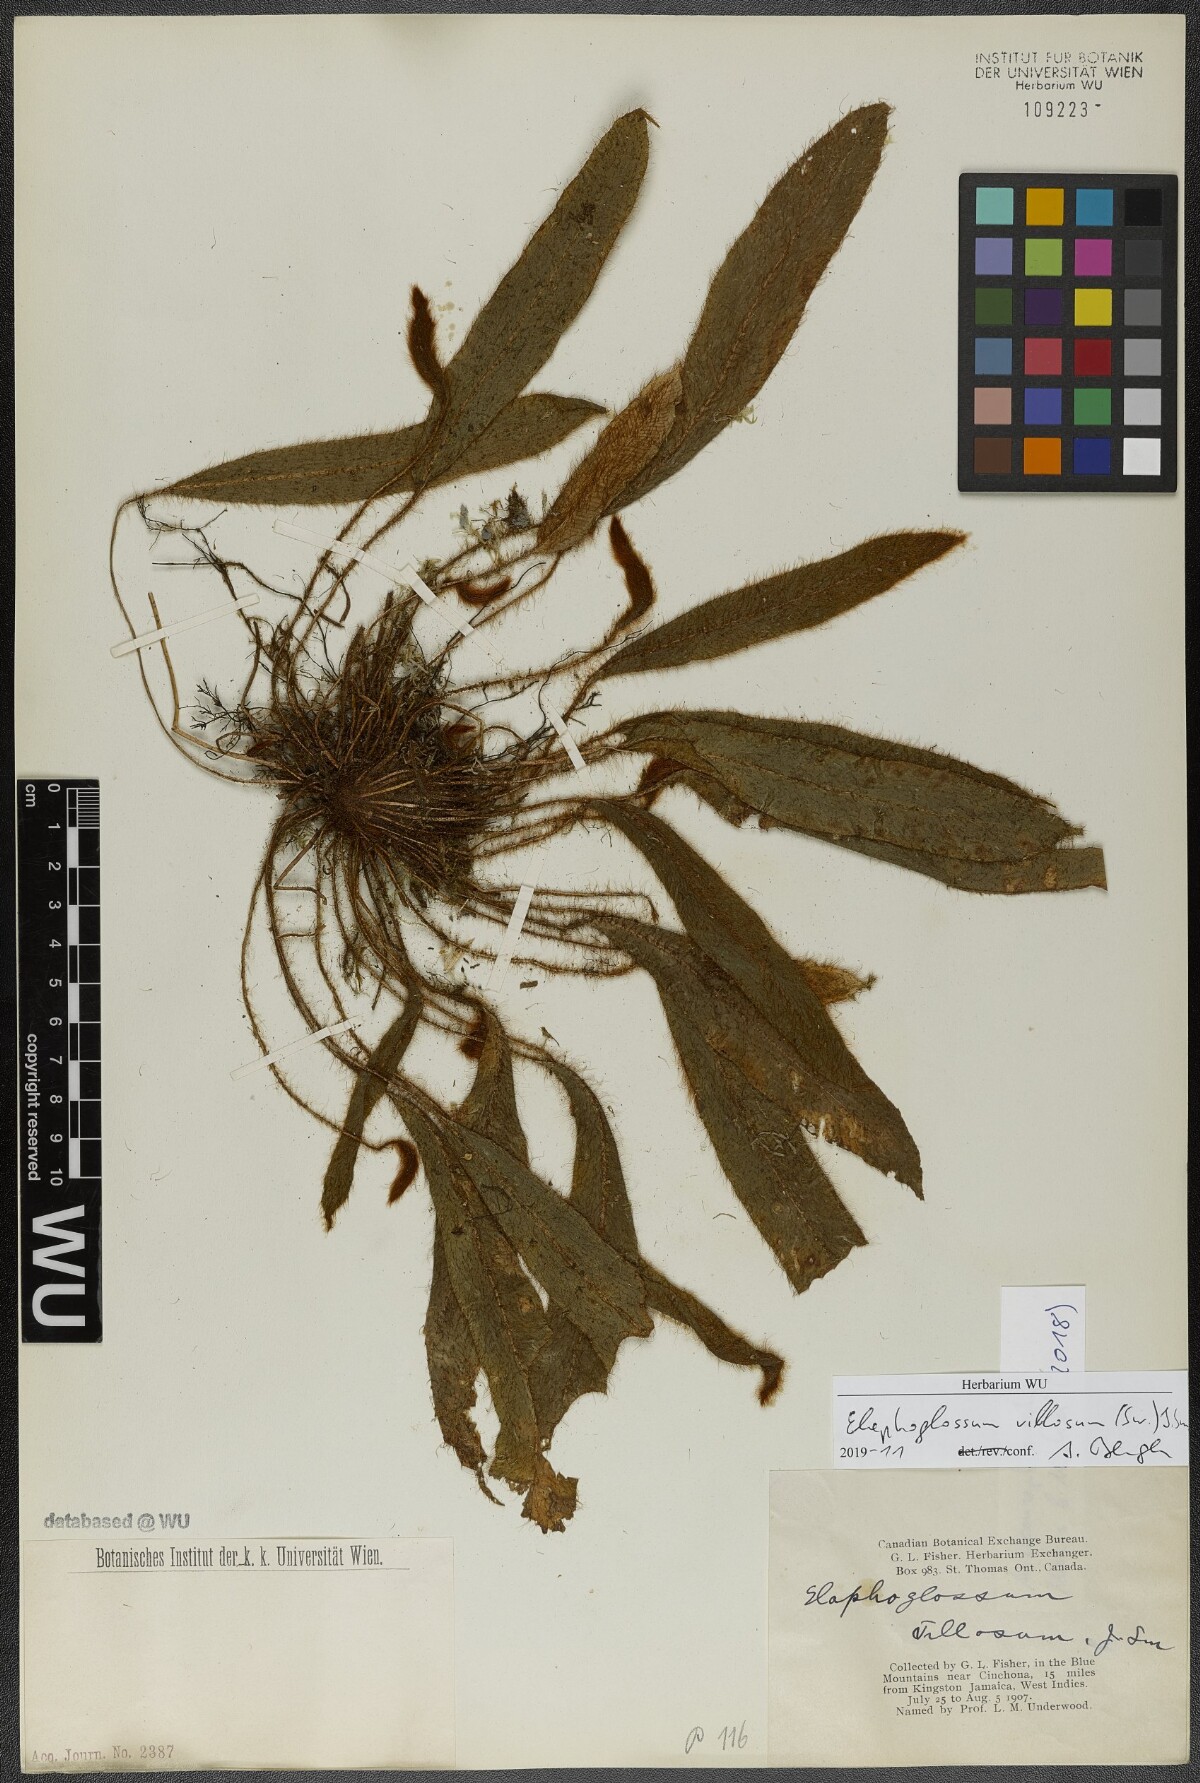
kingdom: Plantae
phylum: Tracheophyta
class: Polypodiopsida
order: Polypodiales
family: Dryopteridaceae
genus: Elaphoglossum
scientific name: Elaphoglossum moritzianum
